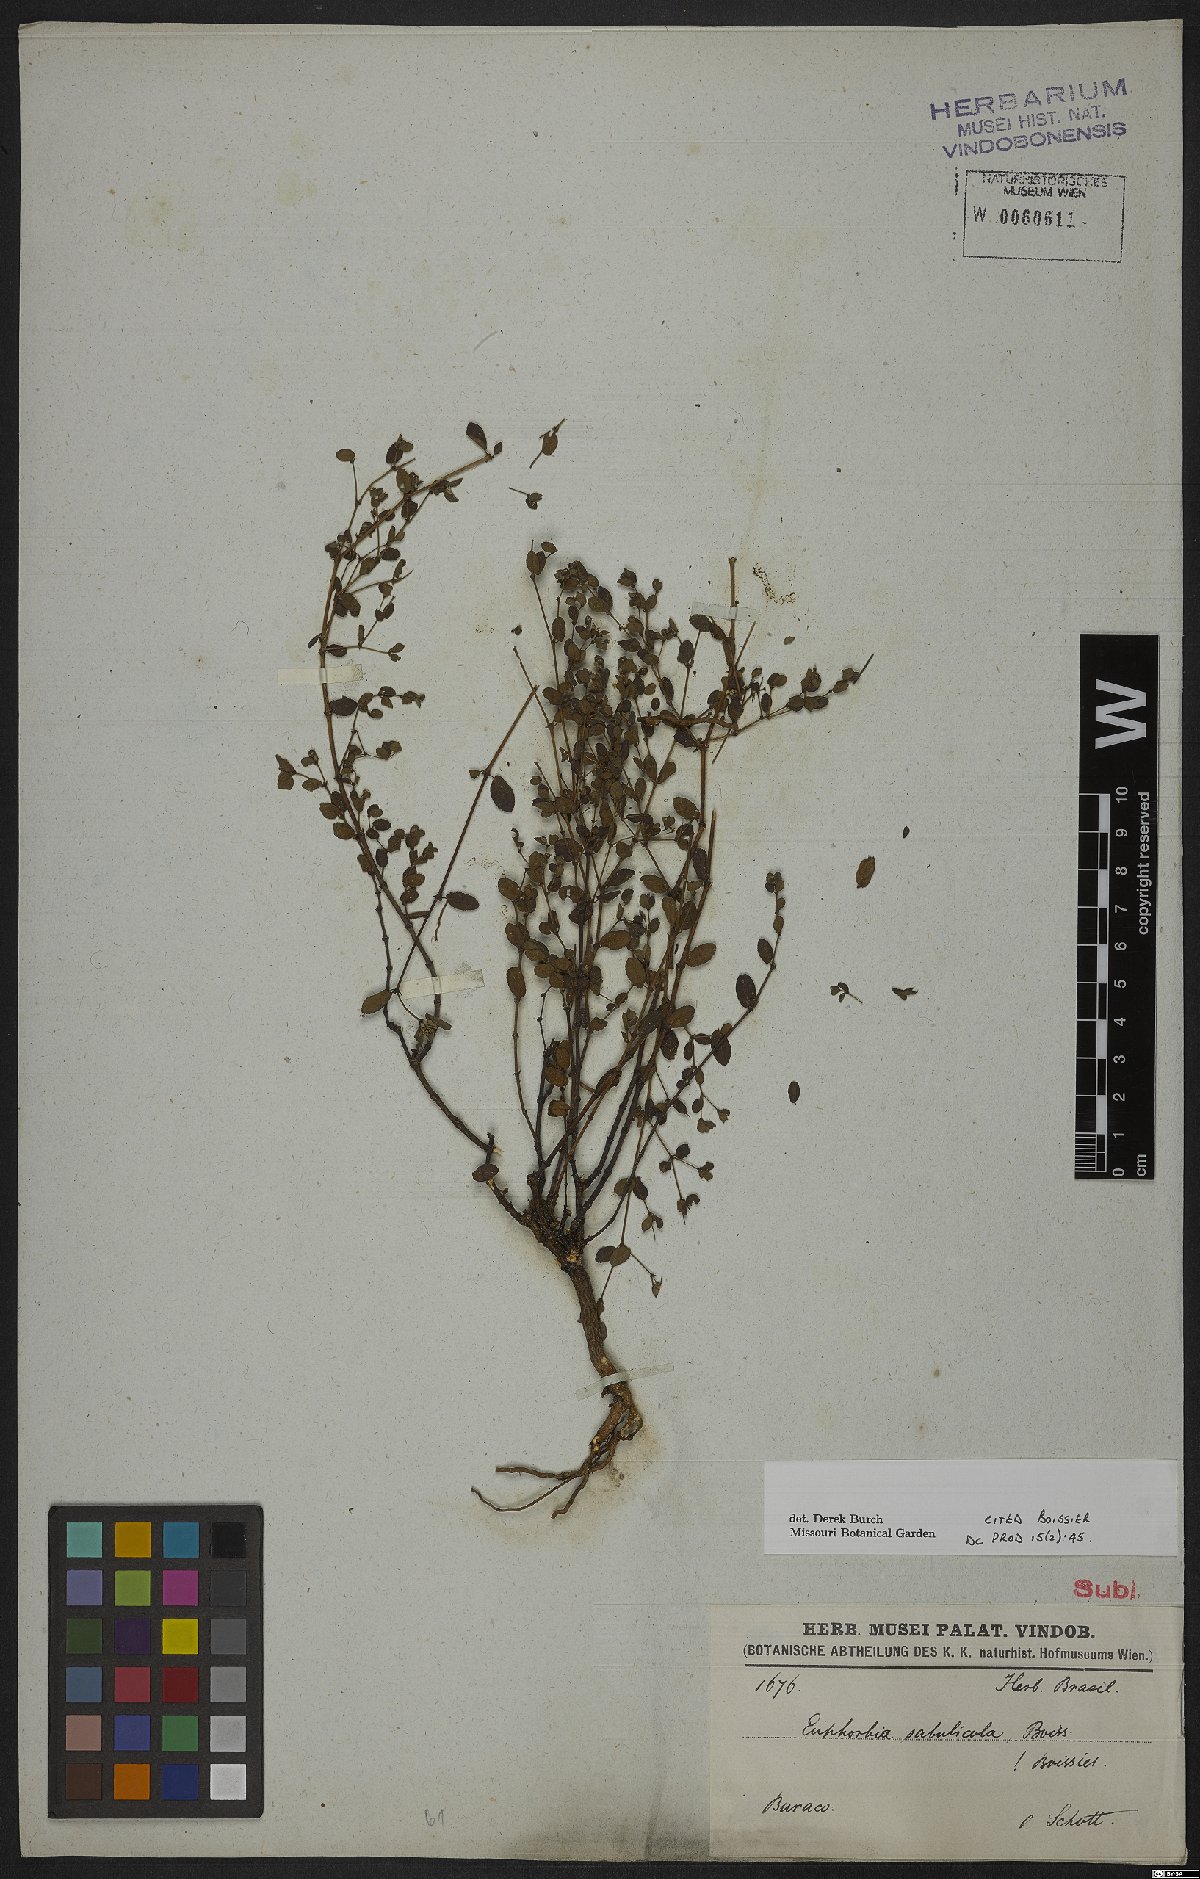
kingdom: Plantae
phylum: Tracheophyta
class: Magnoliopsida
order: Malpighiales
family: Euphorbiaceae
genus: Euphorbia
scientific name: Euphorbia sabulicola
